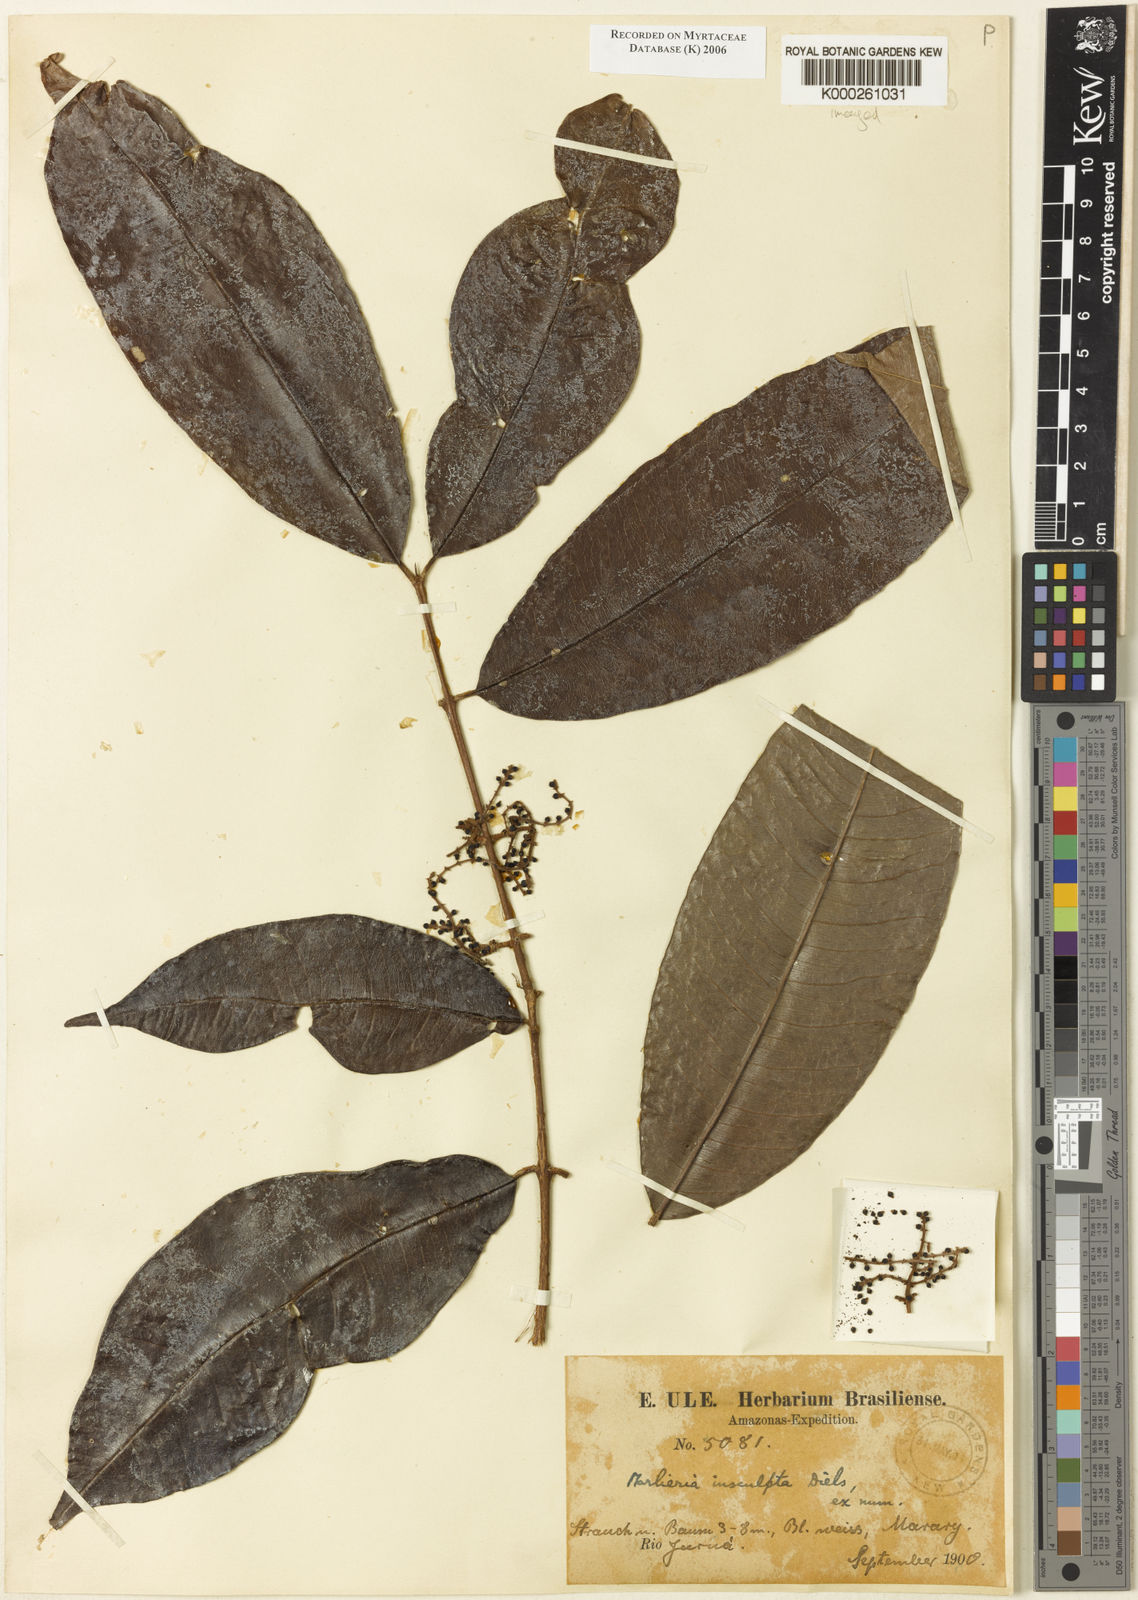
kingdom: Plantae
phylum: Tracheophyta
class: Magnoliopsida
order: Myrtales
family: Myrtaceae
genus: Myrcia
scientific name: Myrcia umbraticola
